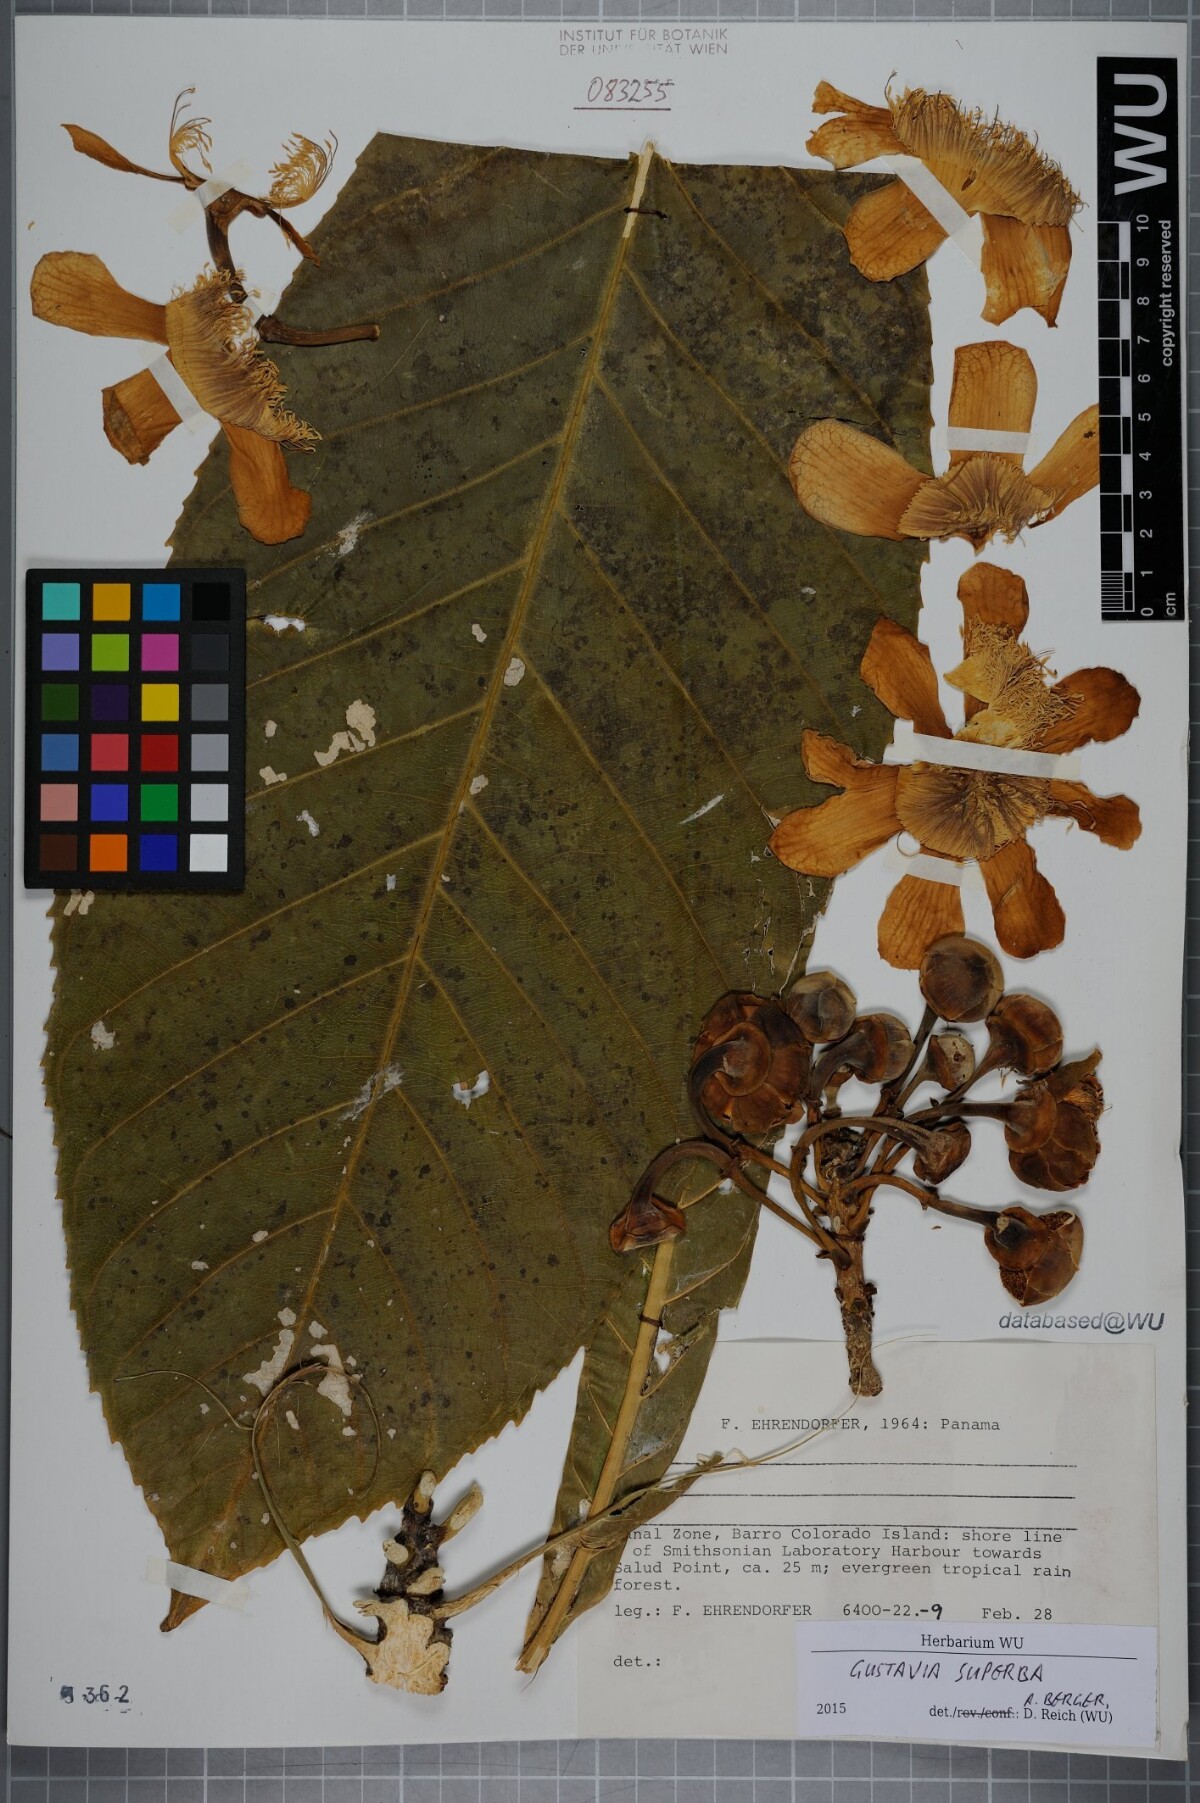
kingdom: Plantae
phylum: Tracheophyta
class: Magnoliopsida
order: Ericales
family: Lecythidaceae
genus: Gustavia
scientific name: Gustavia superba
